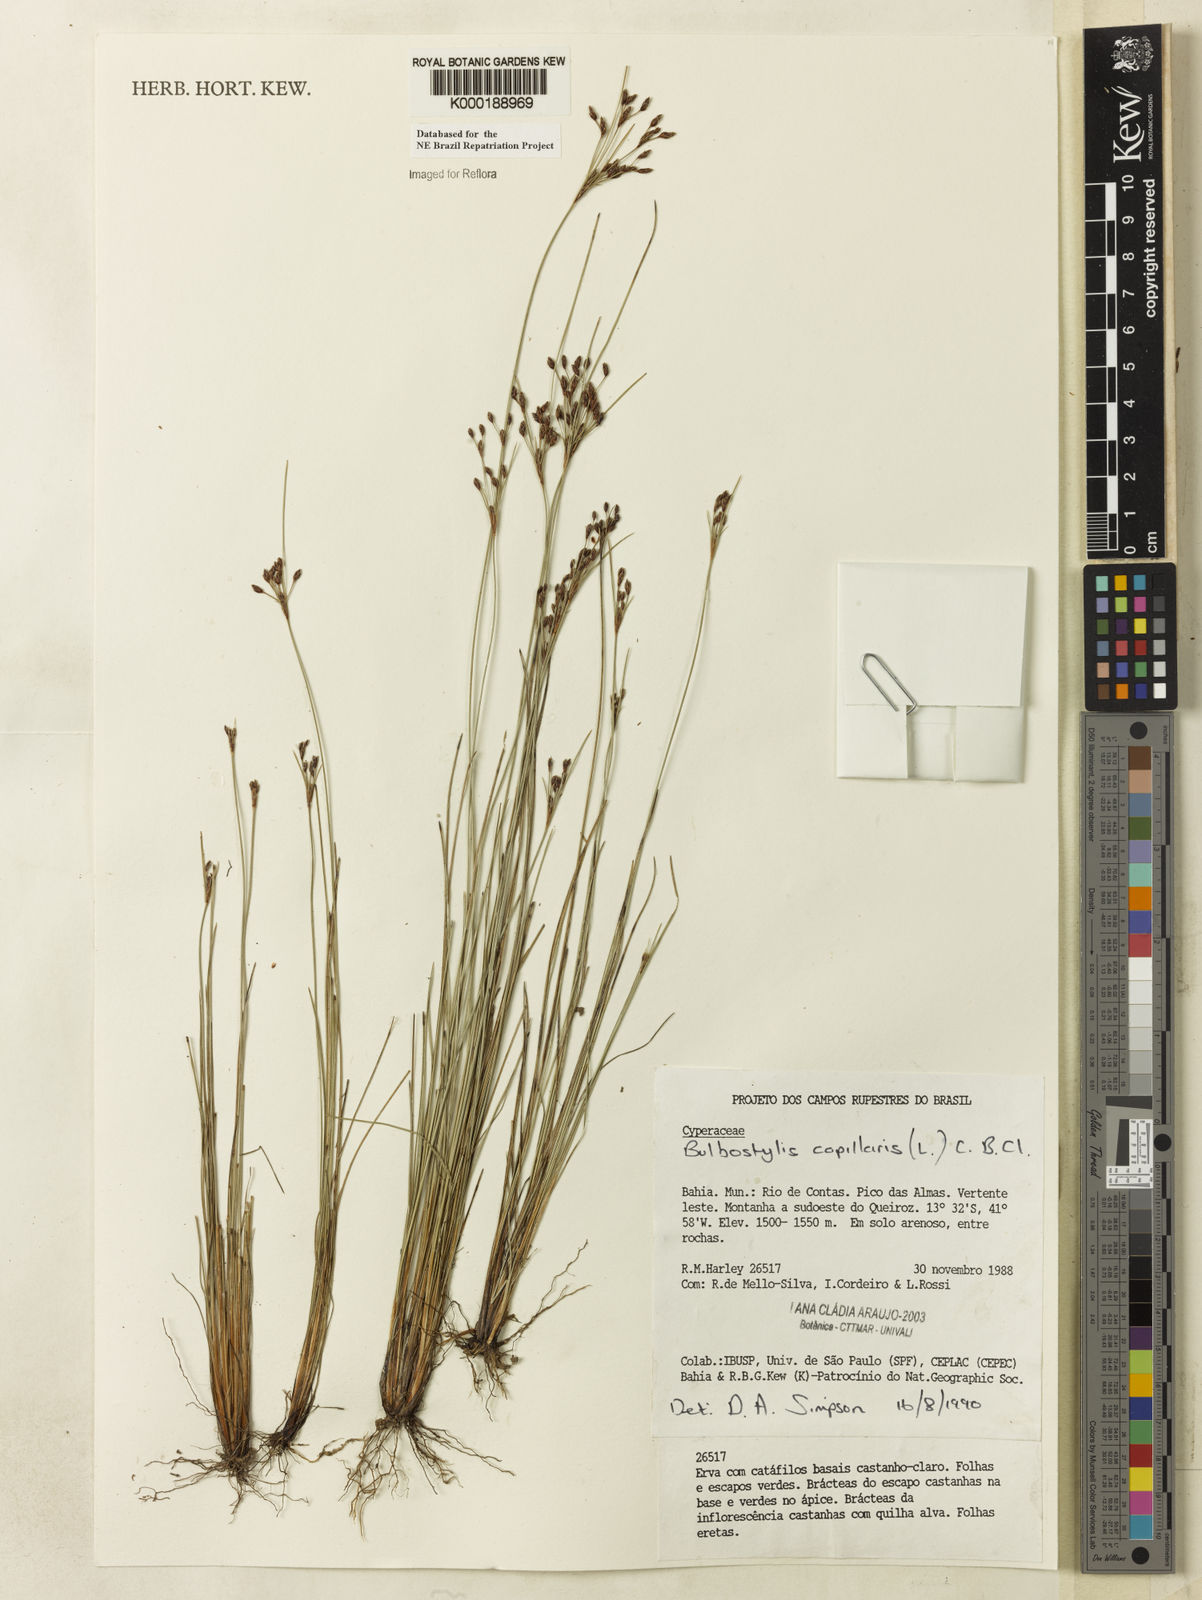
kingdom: Plantae
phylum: Tracheophyta
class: Liliopsida
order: Poales
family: Cyperaceae
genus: Bulbostylis
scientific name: Bulbostylis capillaris
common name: Densetuft hairsedge
